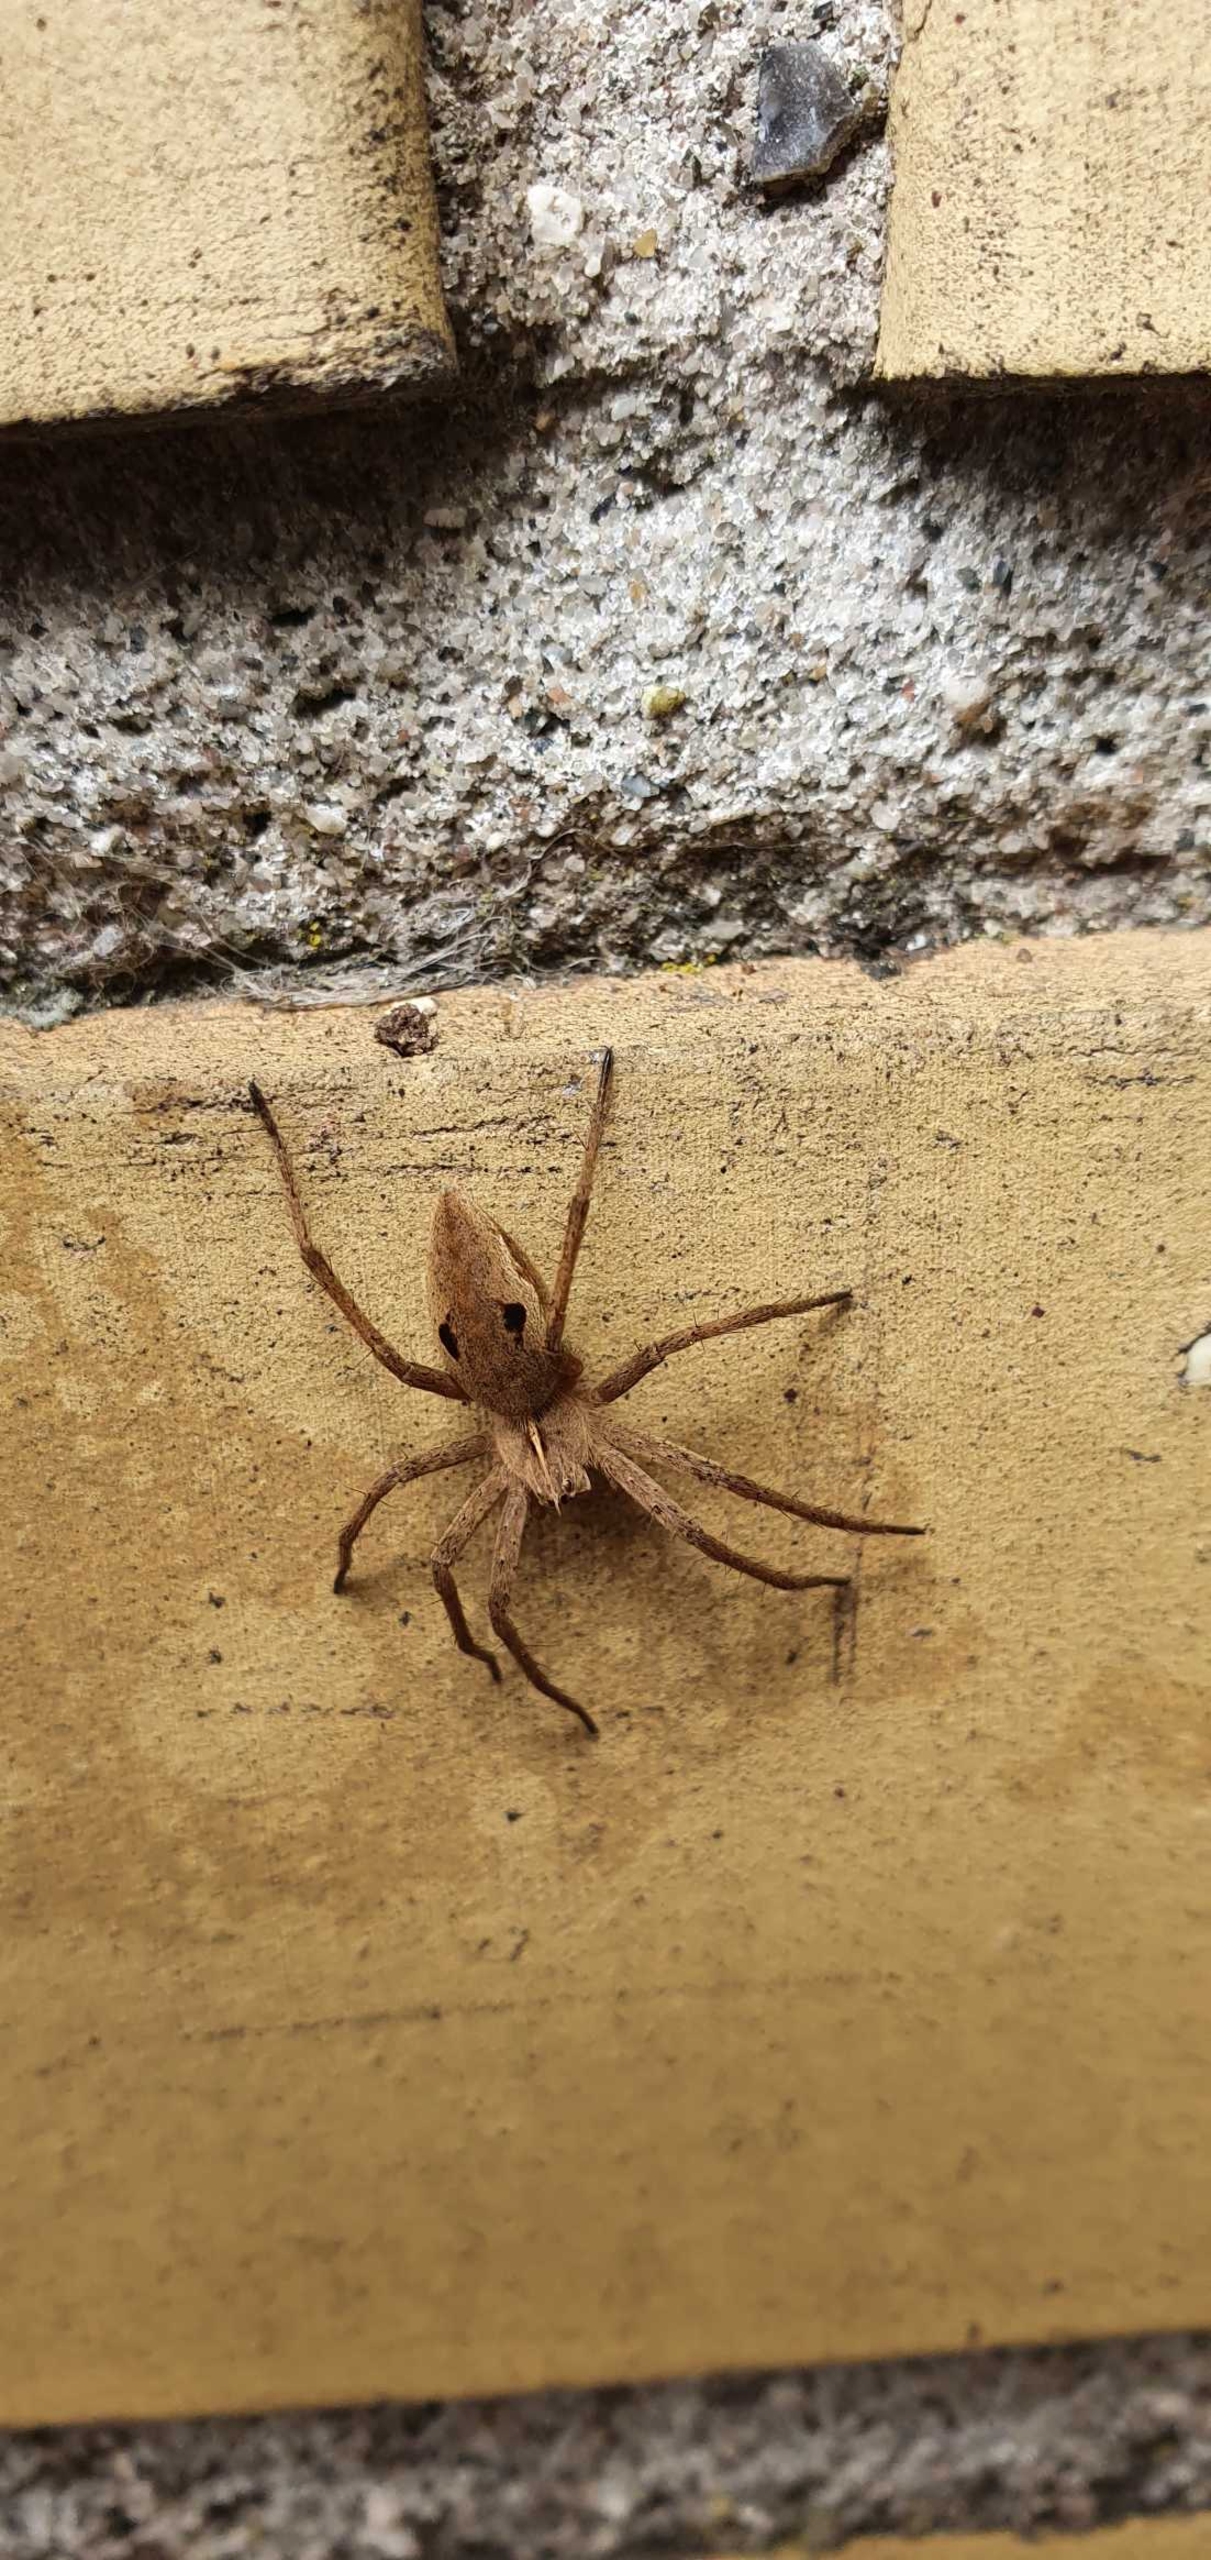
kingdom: Animalia
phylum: Arthropoda
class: Arachnida
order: Araneae
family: Pisauridae
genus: Pisaura
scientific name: Pisaura mirabilis
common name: Almindelig rovedderkop
